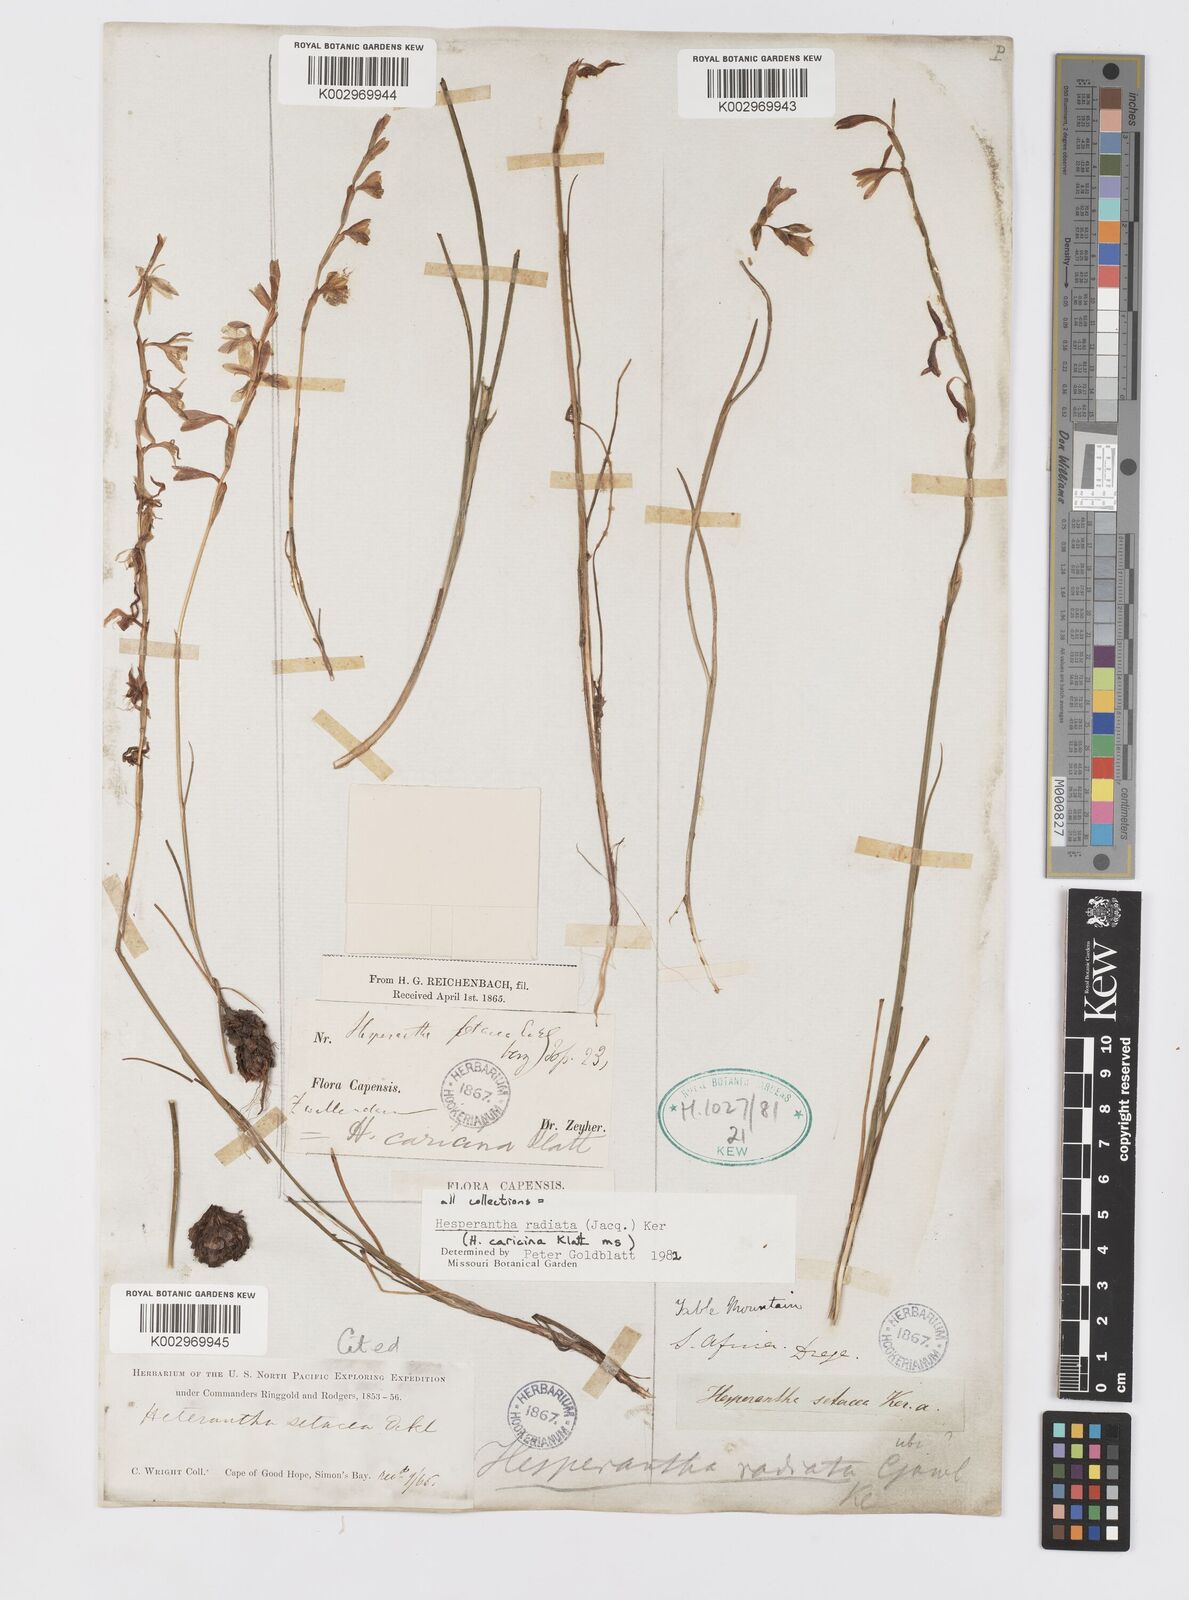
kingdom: Plantae
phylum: Tracheophyta
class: Liliopsida
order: Asparagales
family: Iridaceae
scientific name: Iridaceae
